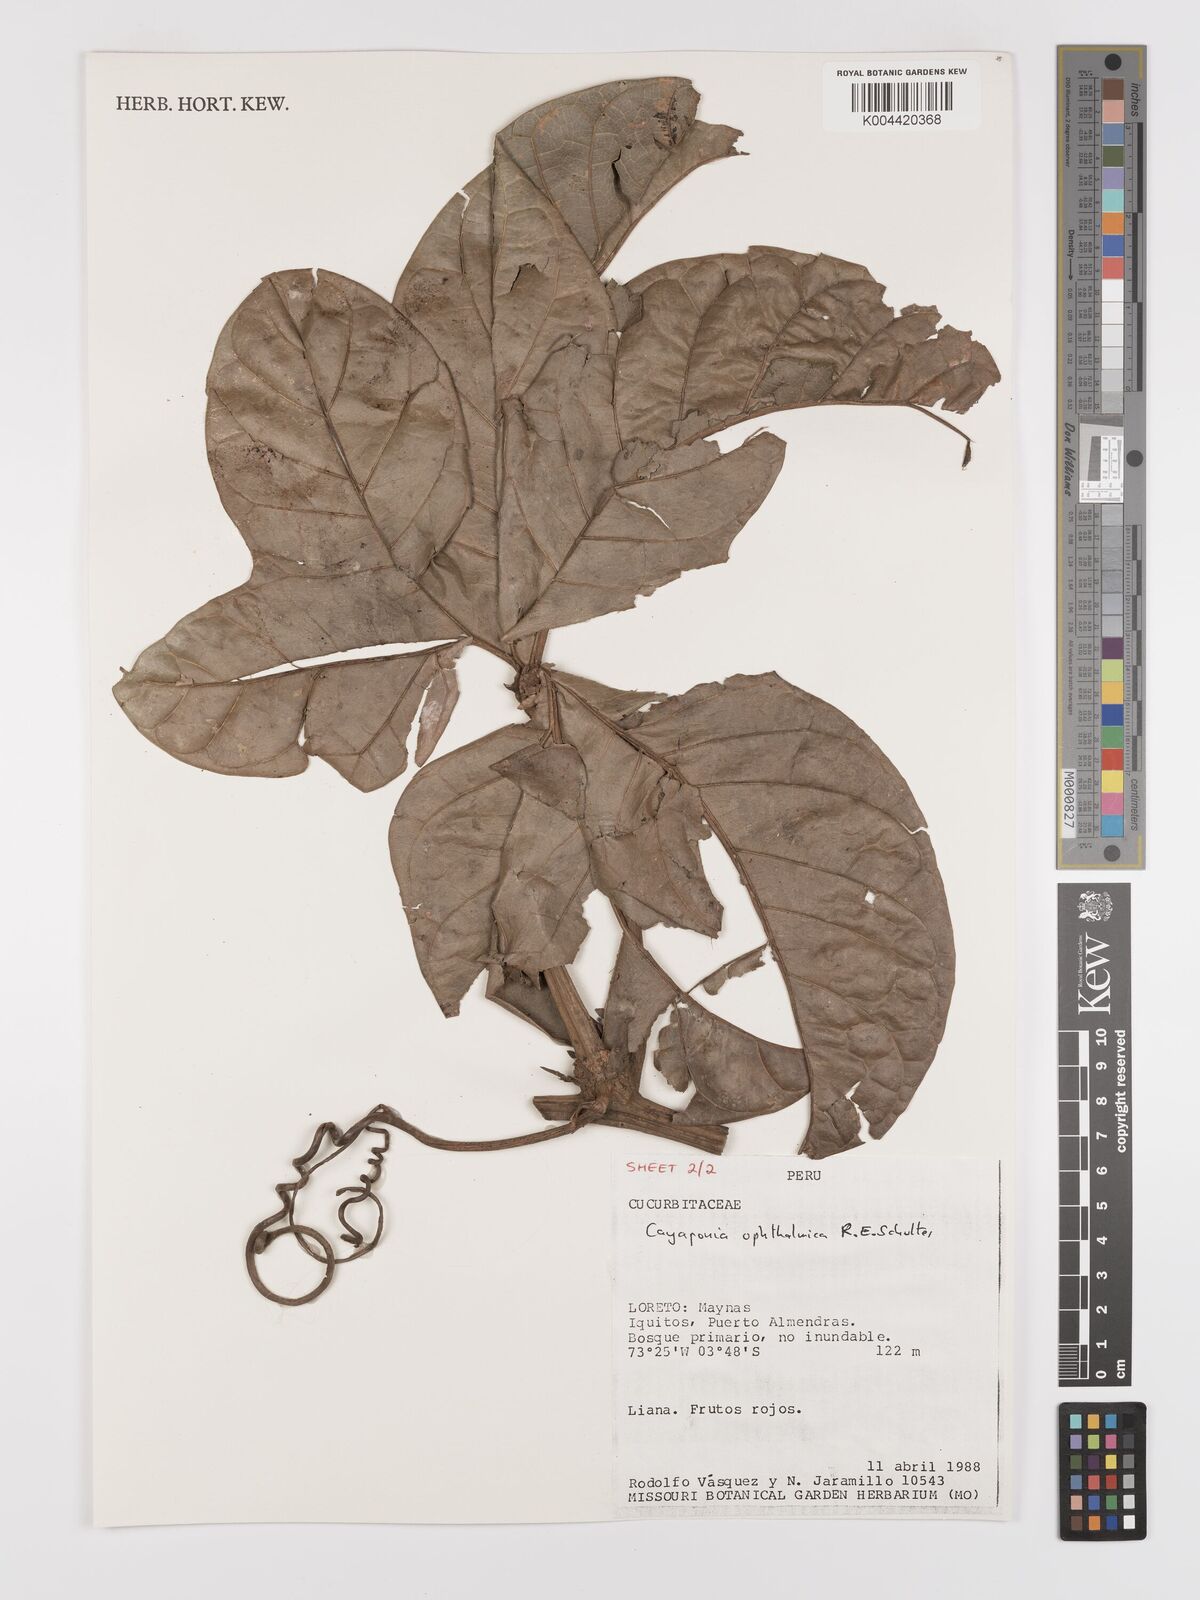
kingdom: Plantae
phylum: Tracheophyta
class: Magnoliopsida
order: Cucurbitales
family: Cucurbitaceae
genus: Cayaponia
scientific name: Cayaponia ophthalmica
